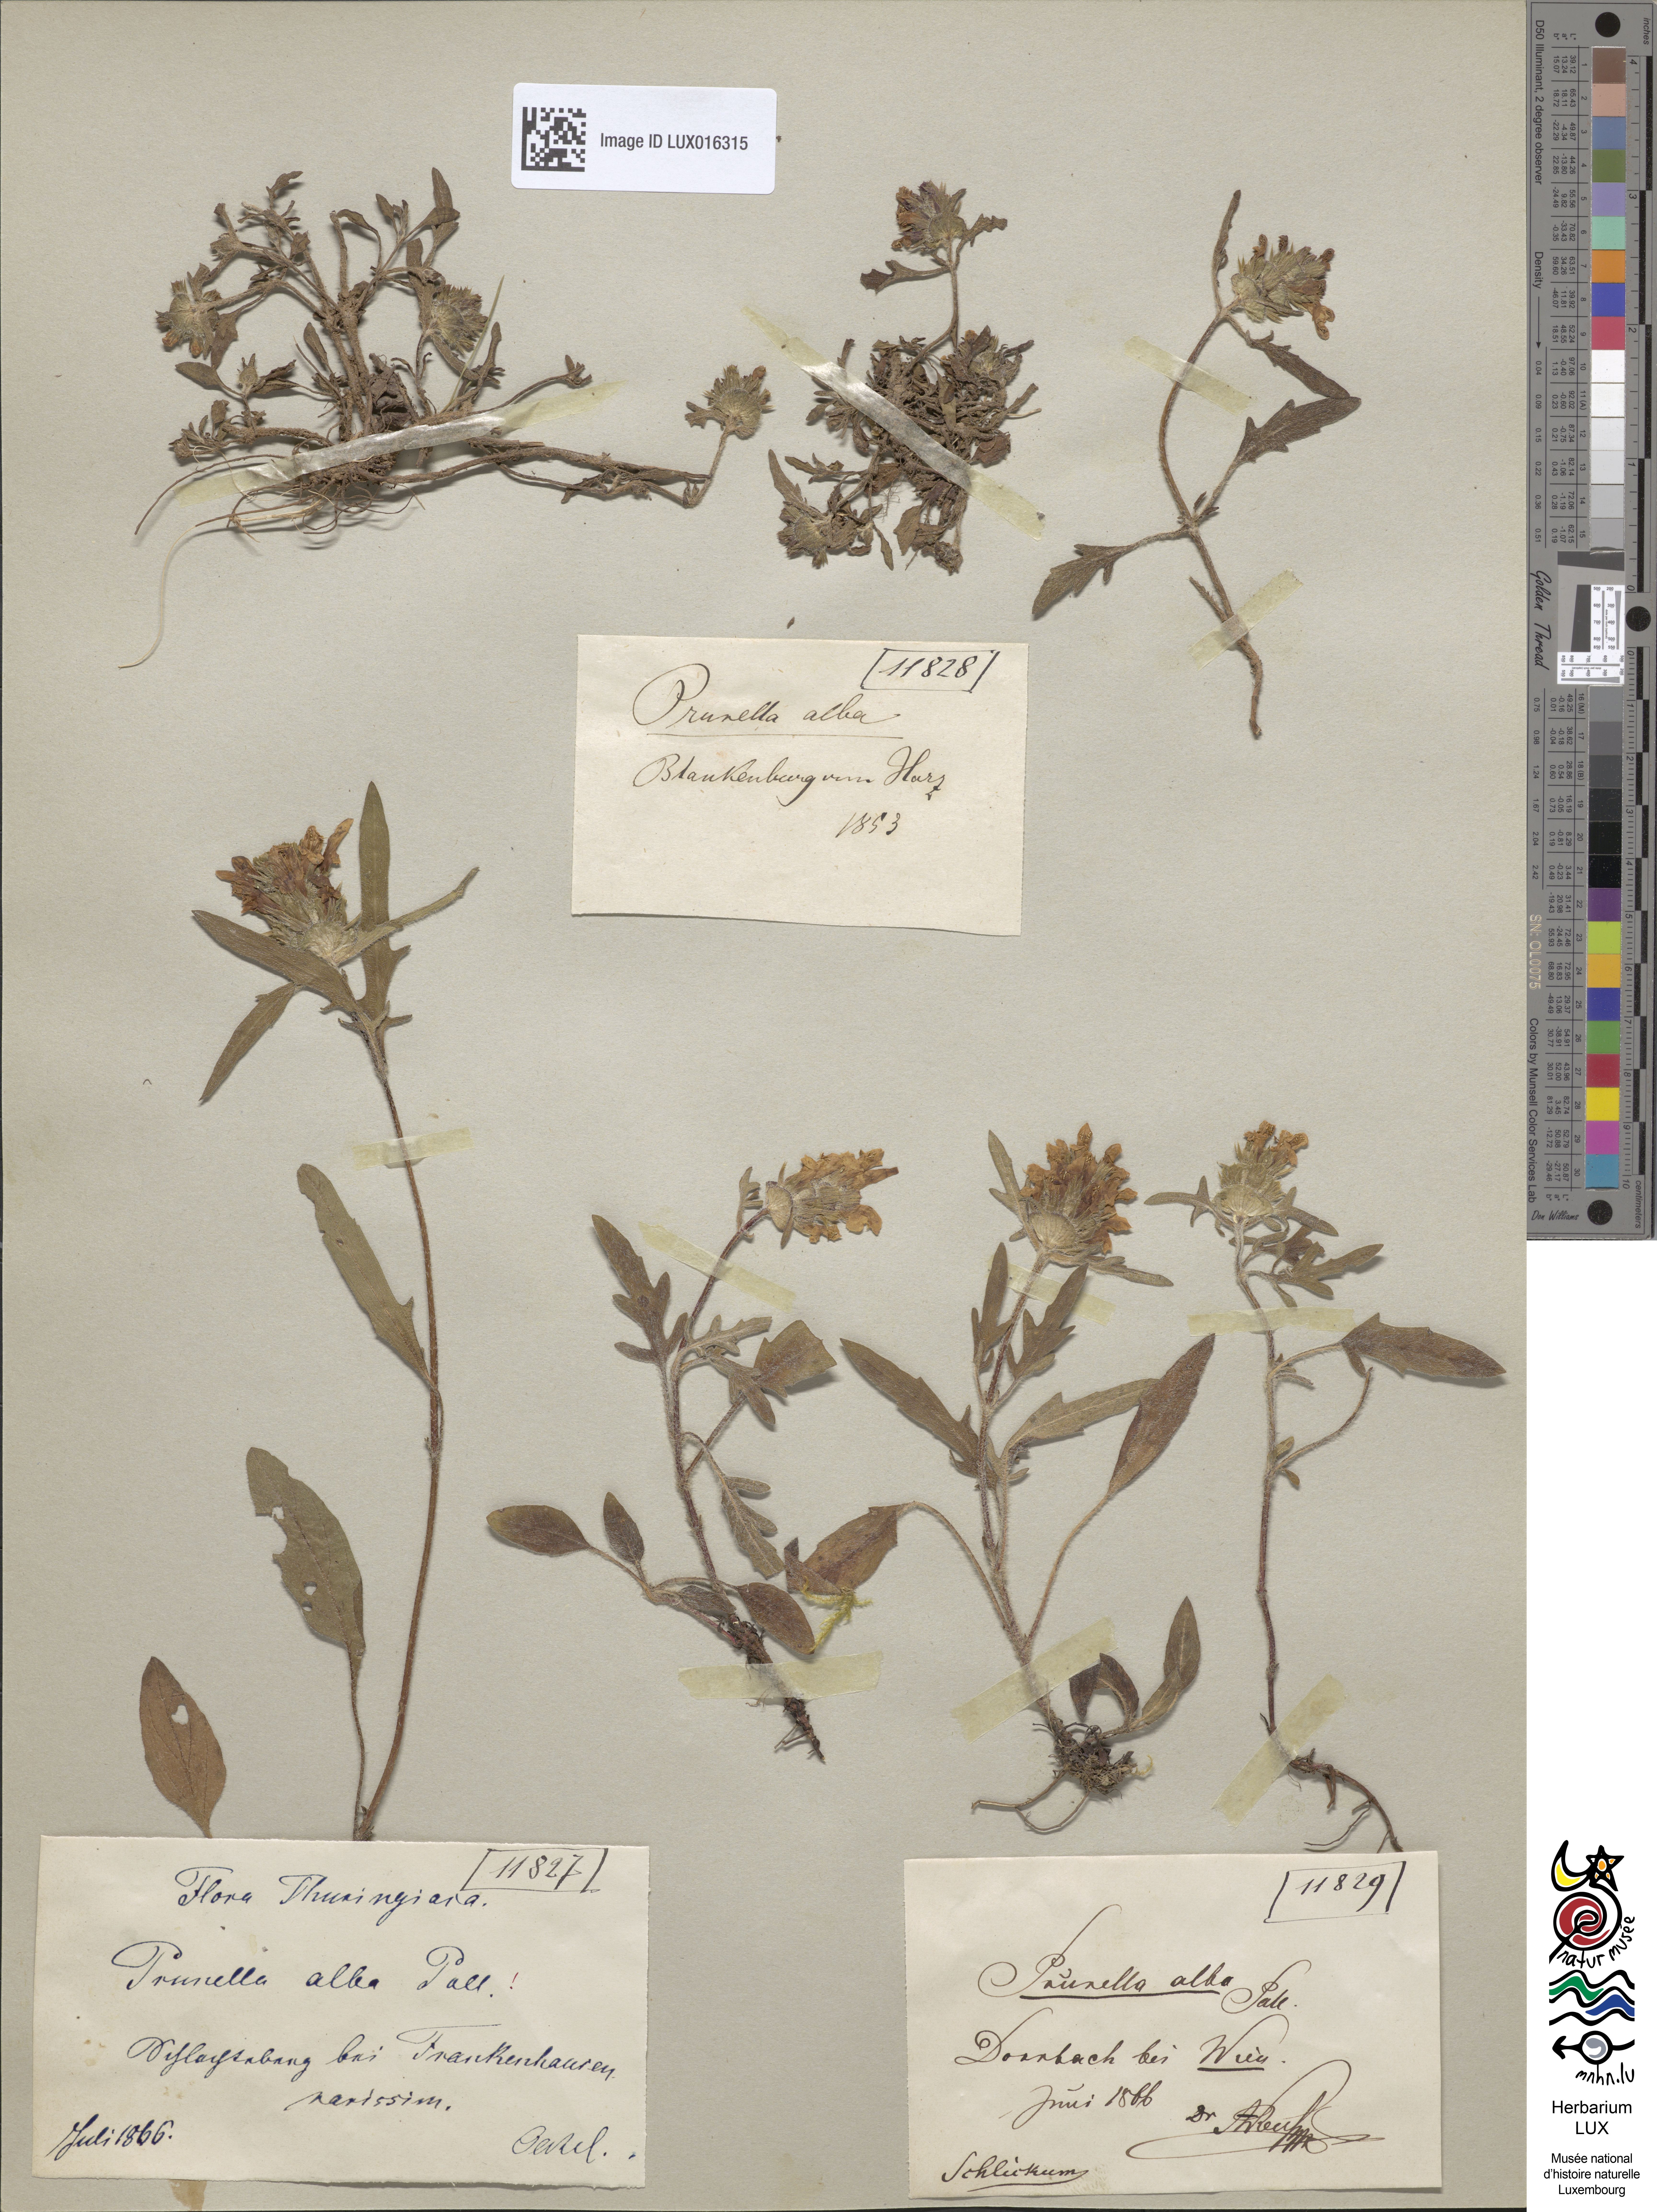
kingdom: Plantae
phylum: Tracheophyta
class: Magnoliopsida
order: Lamiales
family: Lamiaceae
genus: Prunella
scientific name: Prunella laciniata
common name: Cut-leaved selfheal
